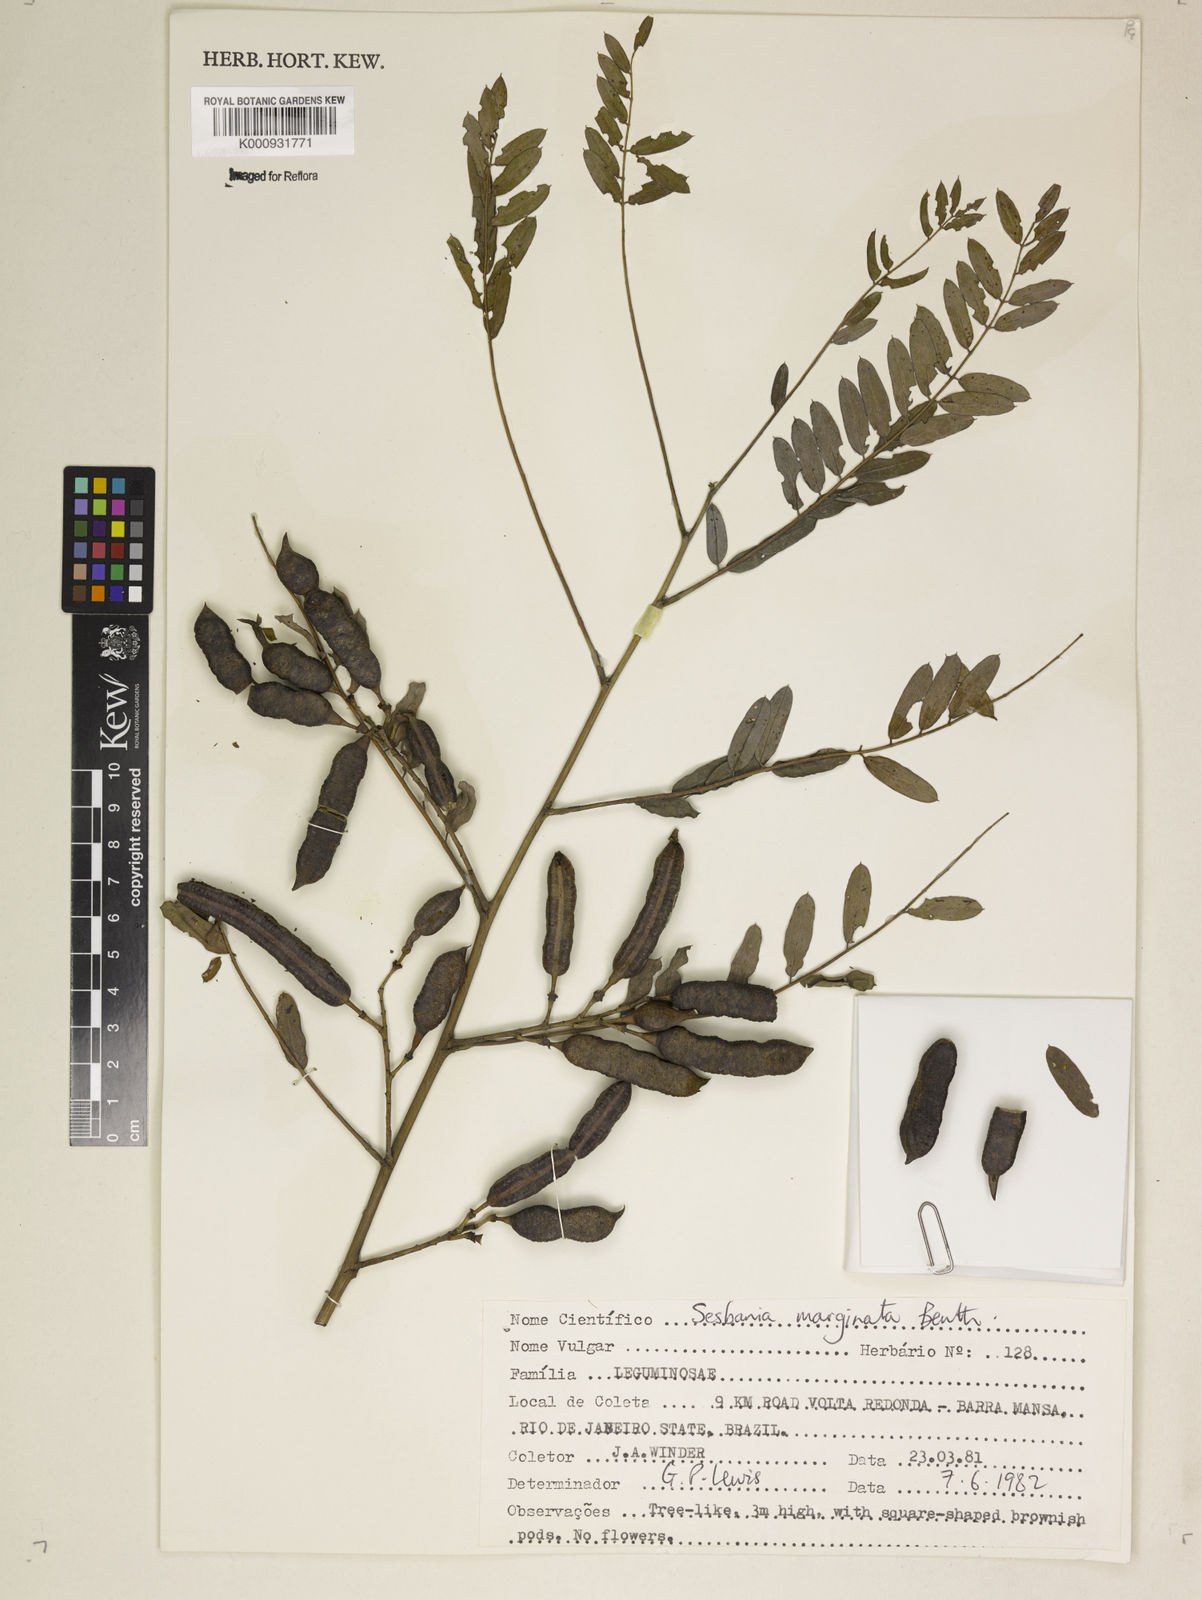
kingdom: Plantae
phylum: Tracheophyta
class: Magnoliopsida
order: Fabales
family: Fabaceae
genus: Sesbania
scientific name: Sesbania
